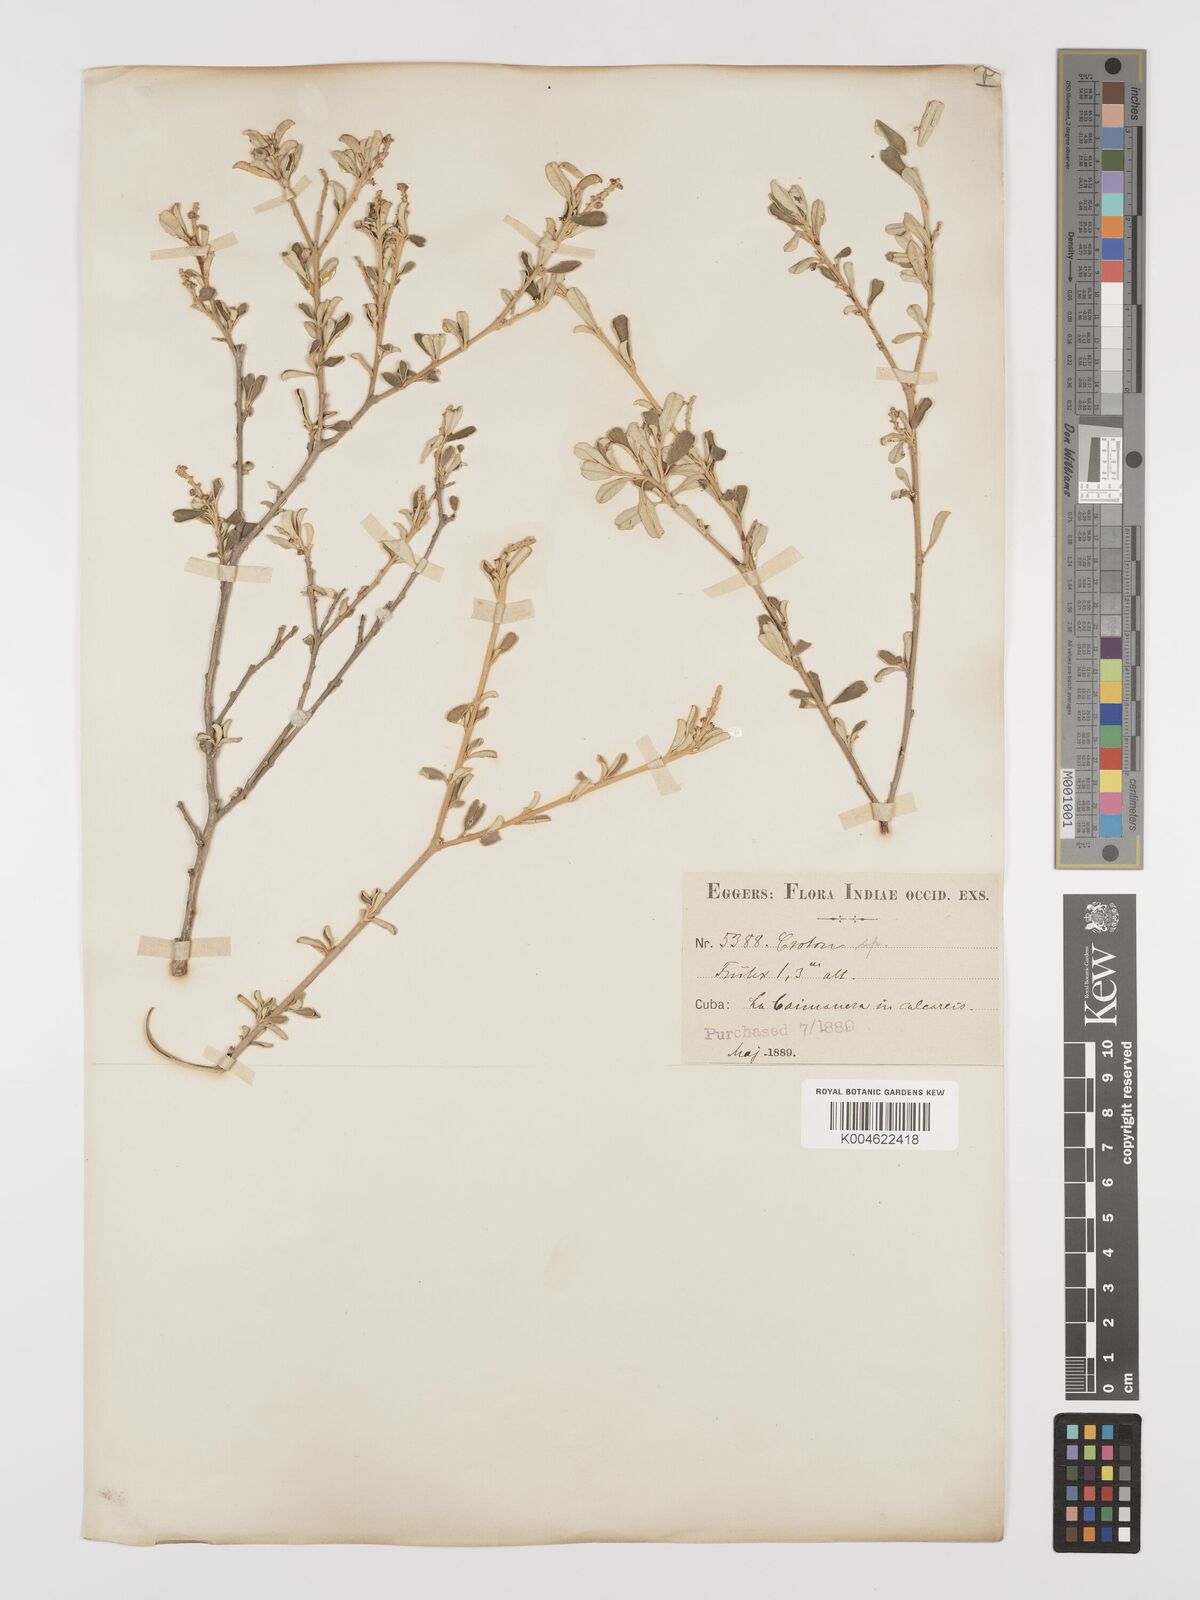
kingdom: Plantae
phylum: Tracheophyta
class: Magnoliopsida
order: Malpighiales
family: Euphorbiaceae
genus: Croton
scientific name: Croton
